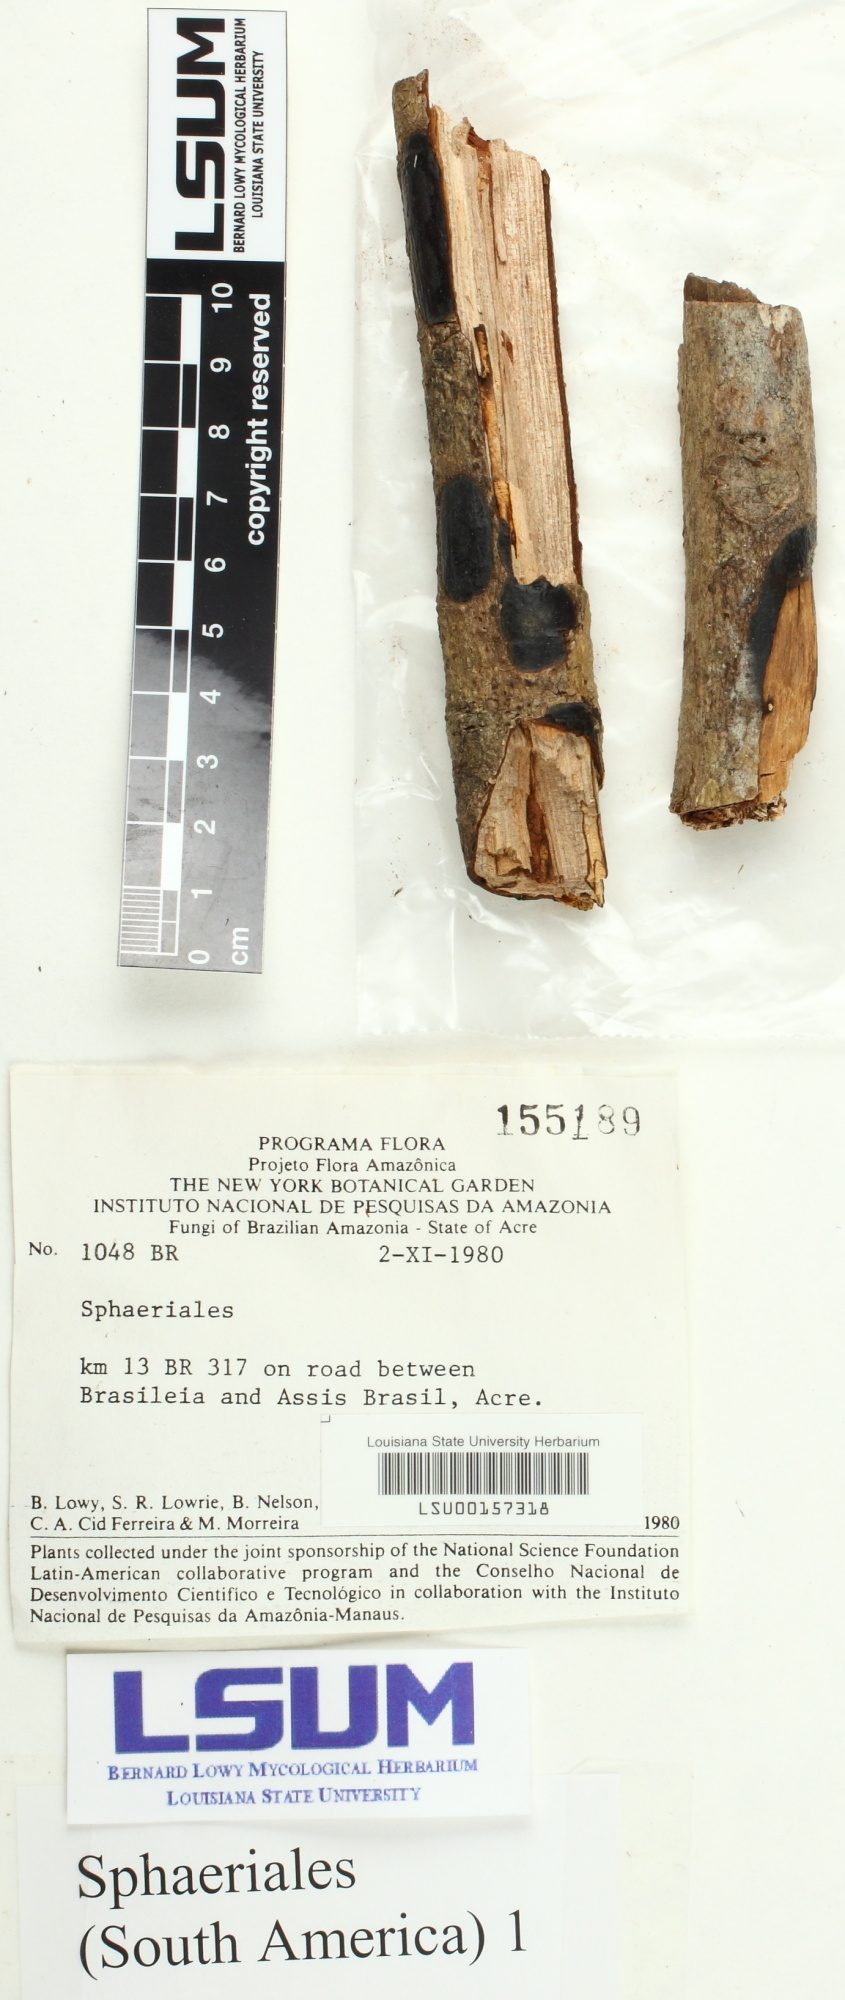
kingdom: Fungi
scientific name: Fungi
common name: Fungi
